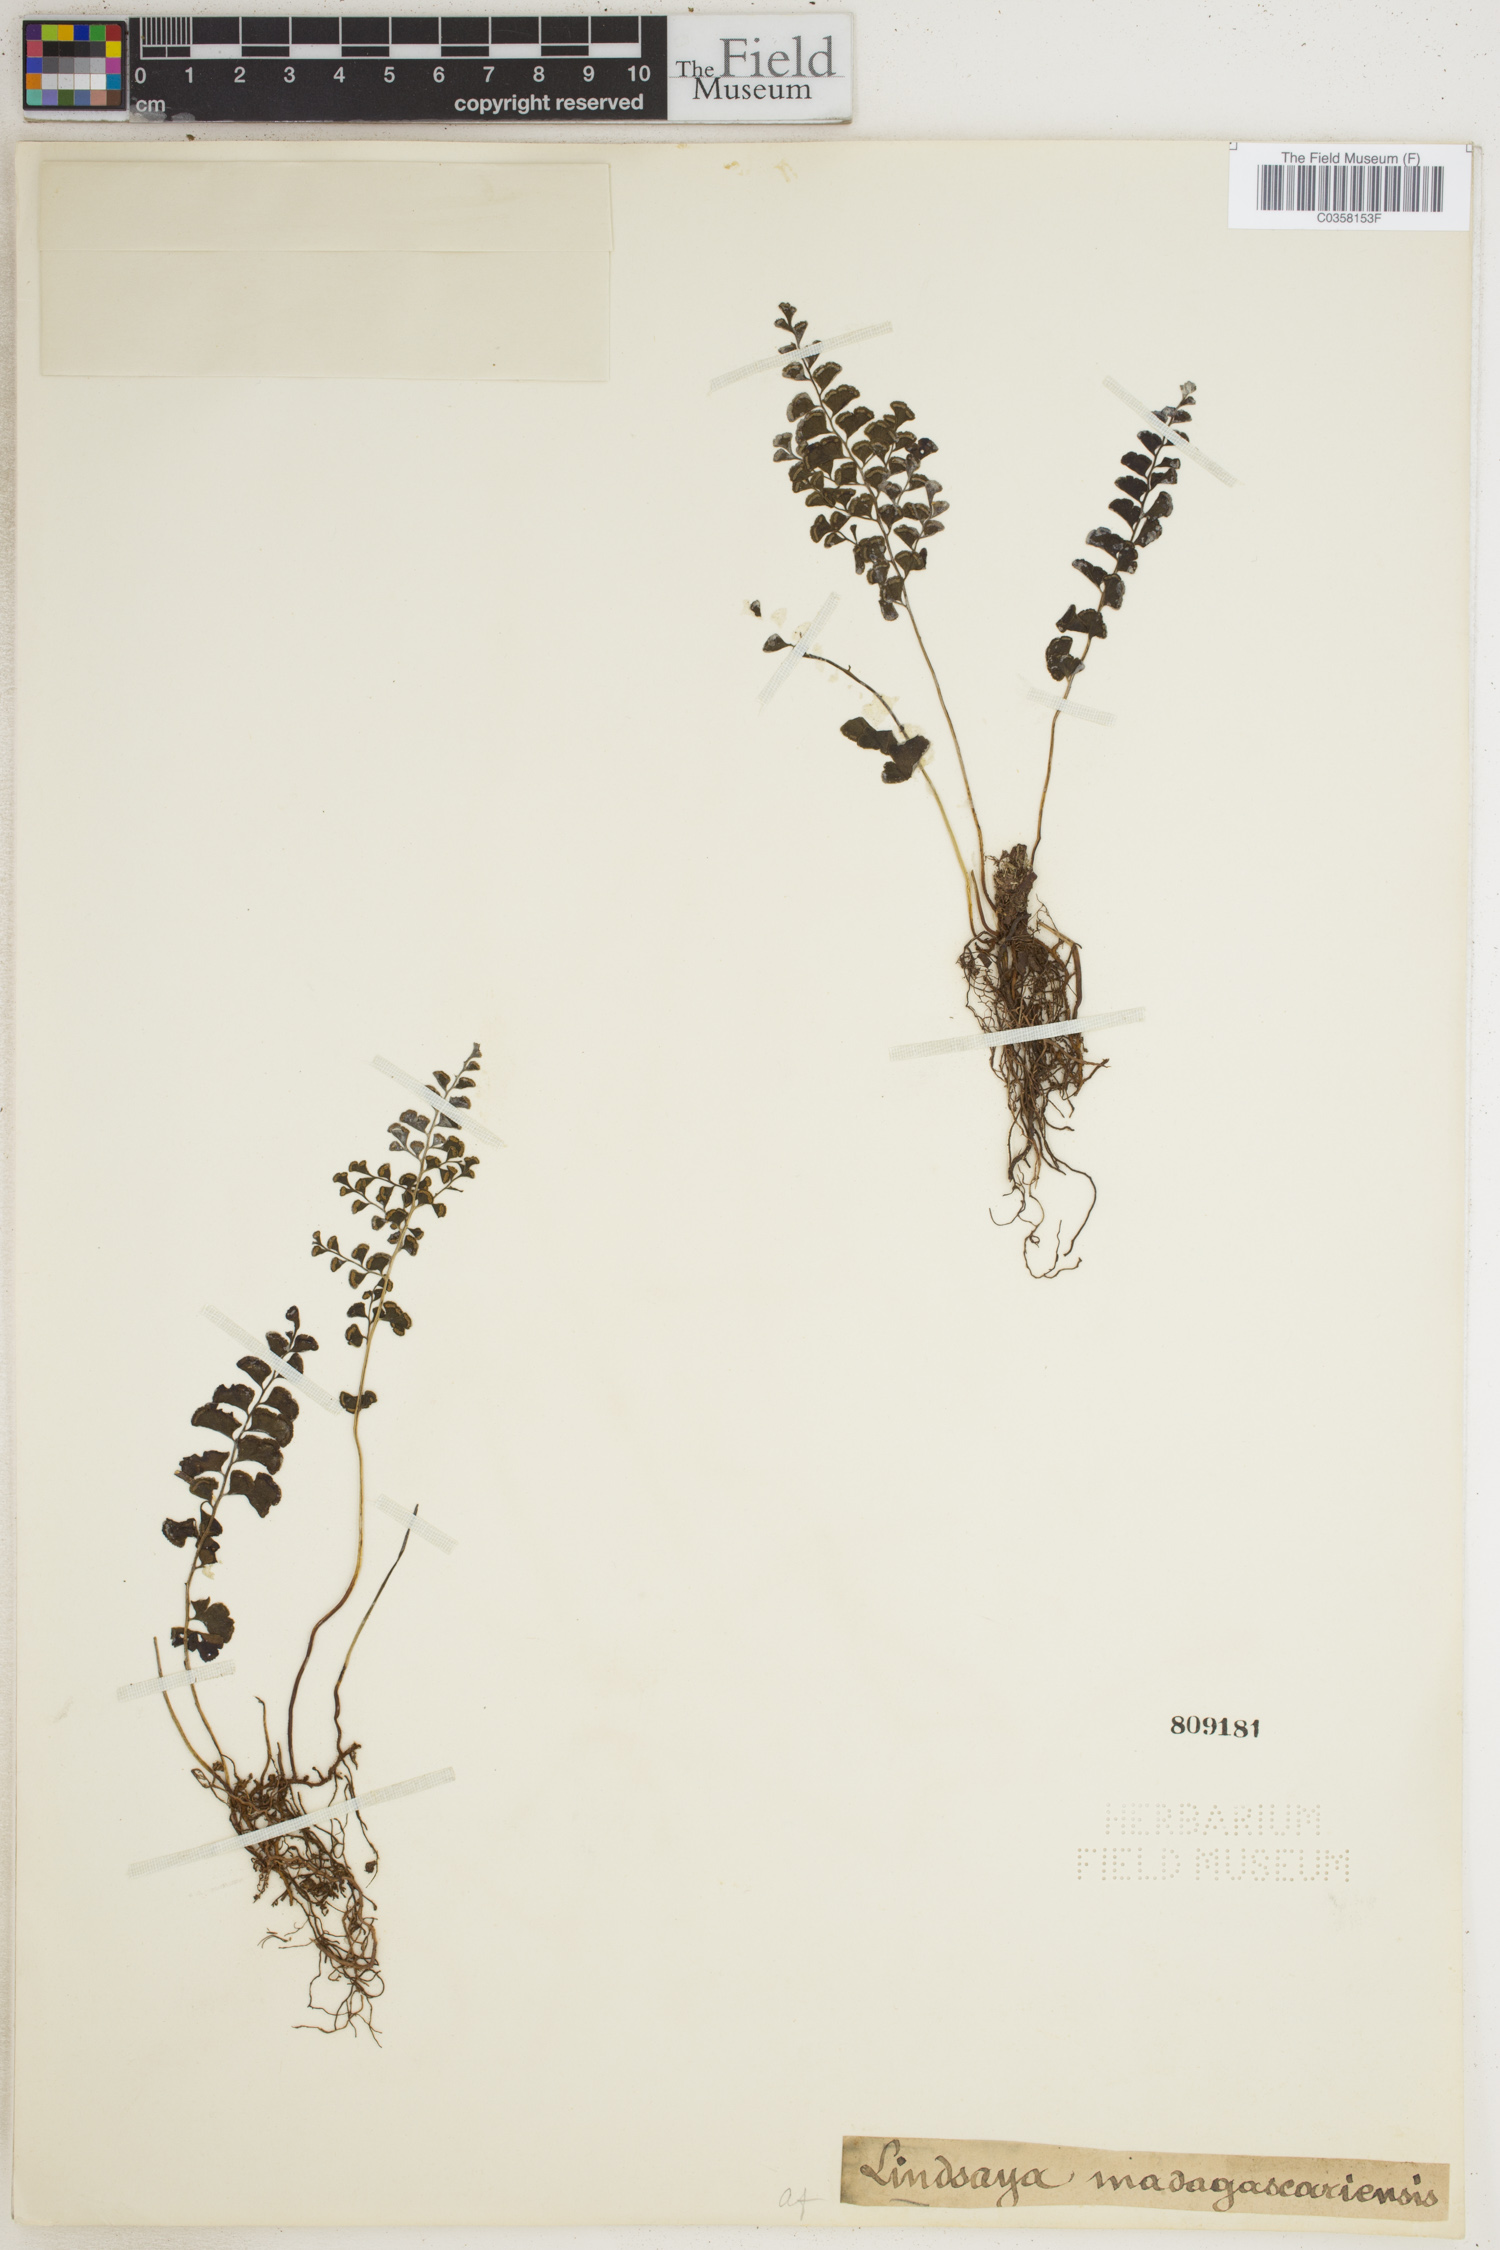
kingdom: Plantae
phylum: Tracheophyta
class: Polypodiopsida
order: Polypodiales
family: Lindsaeaceae
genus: Odontosoria
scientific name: Odontosoria madagascariensis
